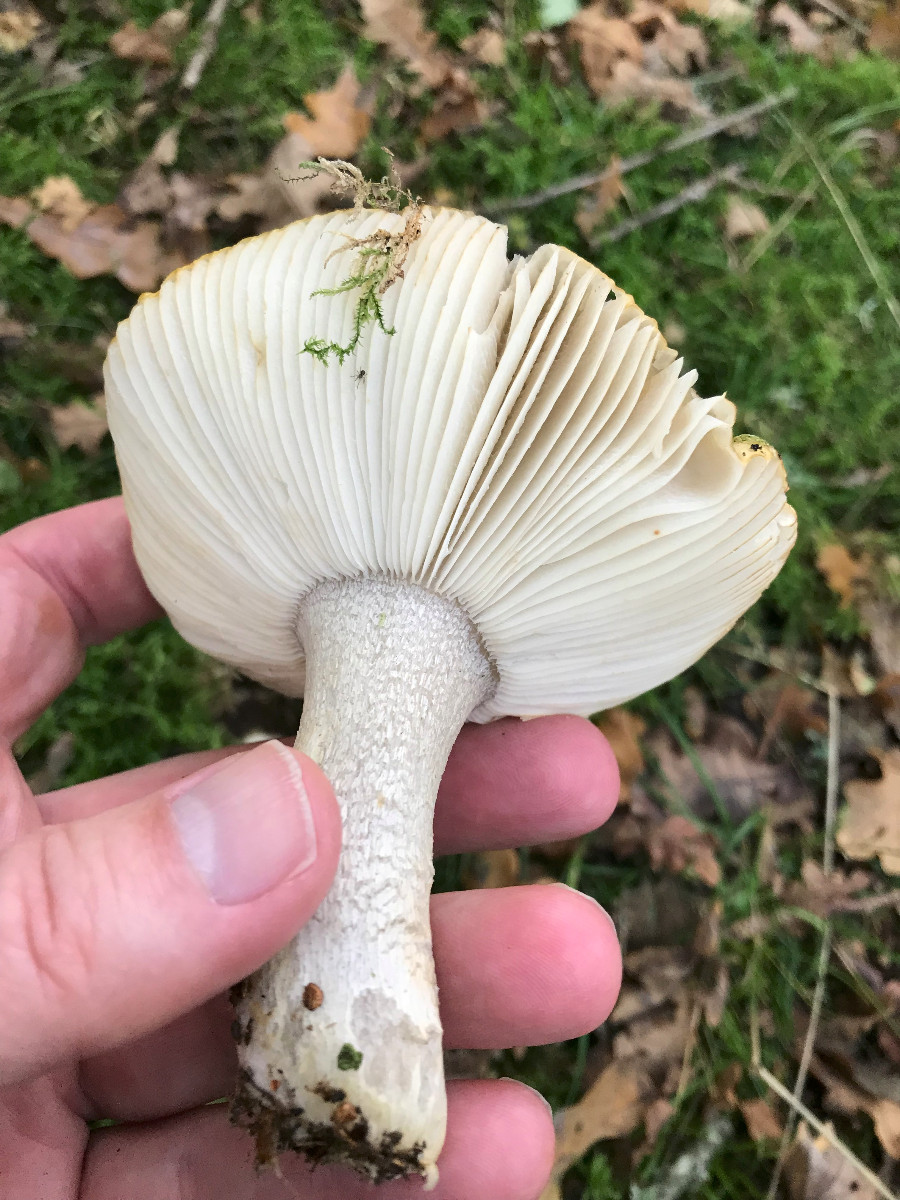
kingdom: Fungi
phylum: Basidiomycota
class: Agaricomycetes
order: Russulales
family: Russulaceae
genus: Russula
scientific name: Russula ochroleuca
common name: okkergul skørhat
